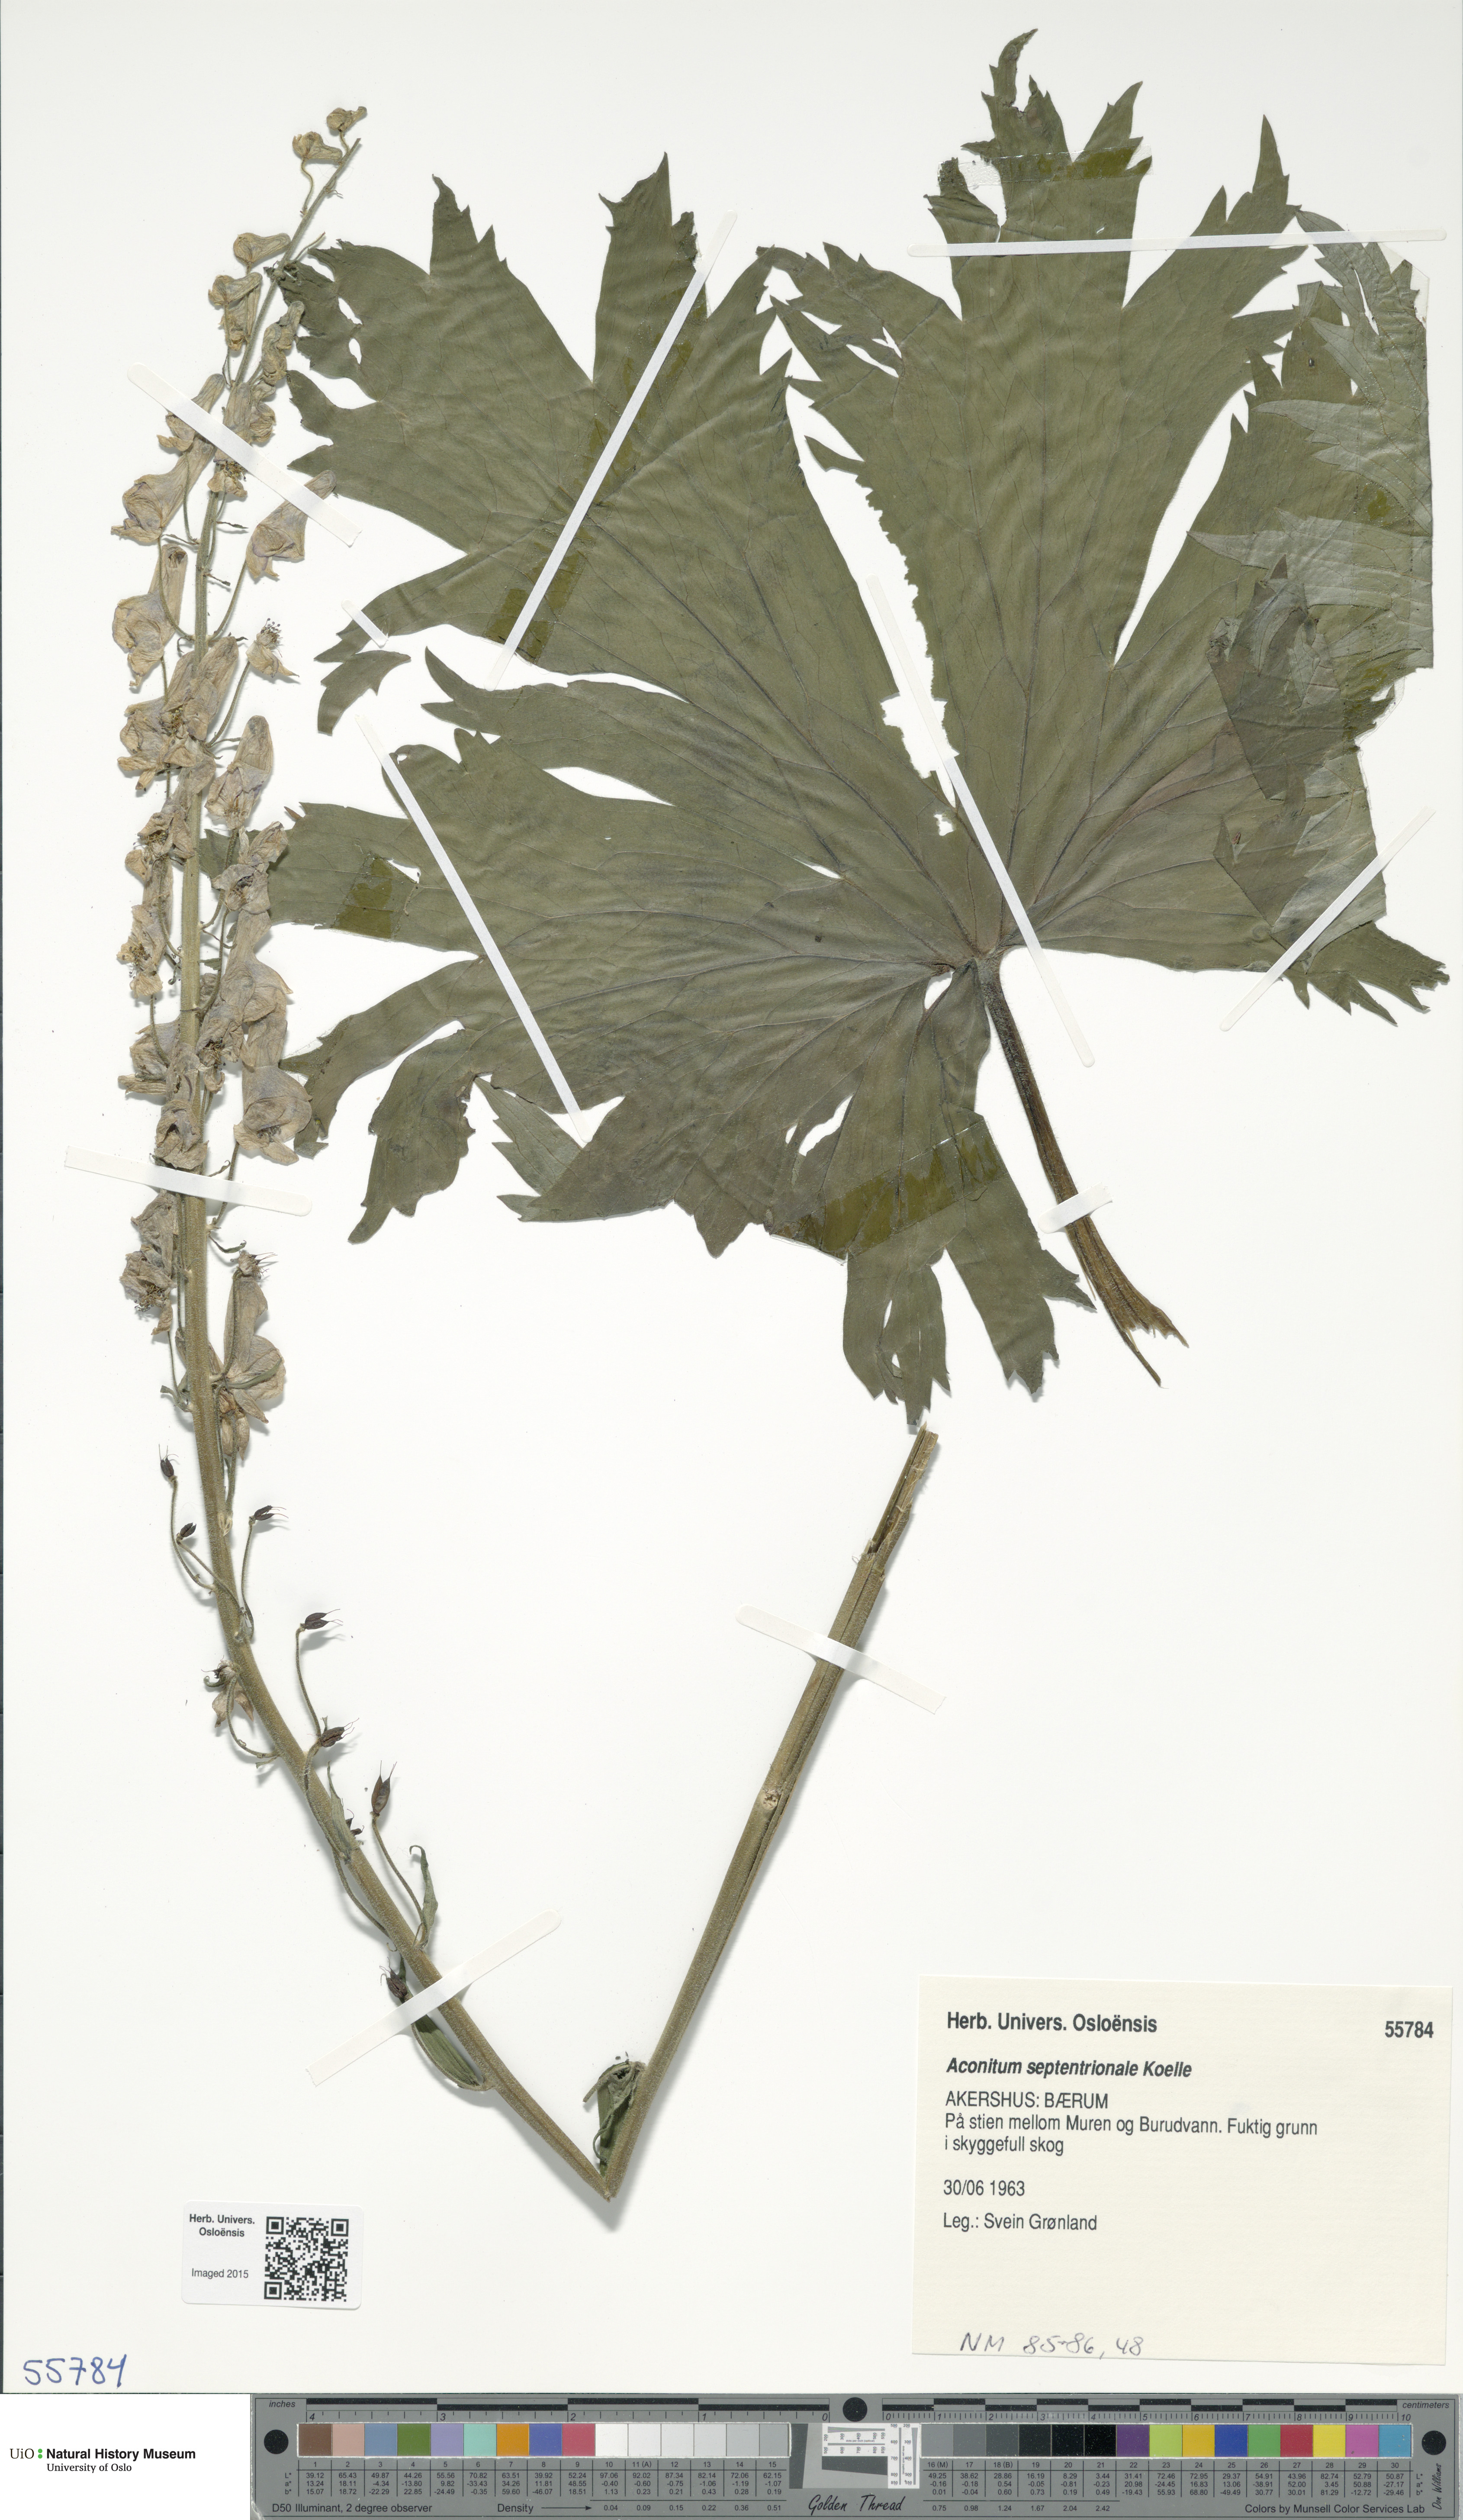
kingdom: Plantae
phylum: Tracheophyta
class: Magnoliopsida
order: Ranunculales
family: Ranunculaceae
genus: Aconitum
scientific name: Aconitum septentrionale
